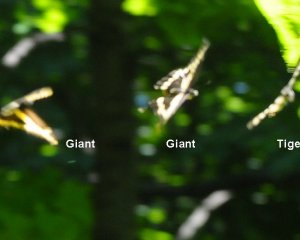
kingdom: Animalia
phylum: Arthropoda
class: Insecta
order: Lepidoptera
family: Papilionidae
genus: Papilio
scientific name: Papilio cresphontes
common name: Eastern Giant Swallowtail
